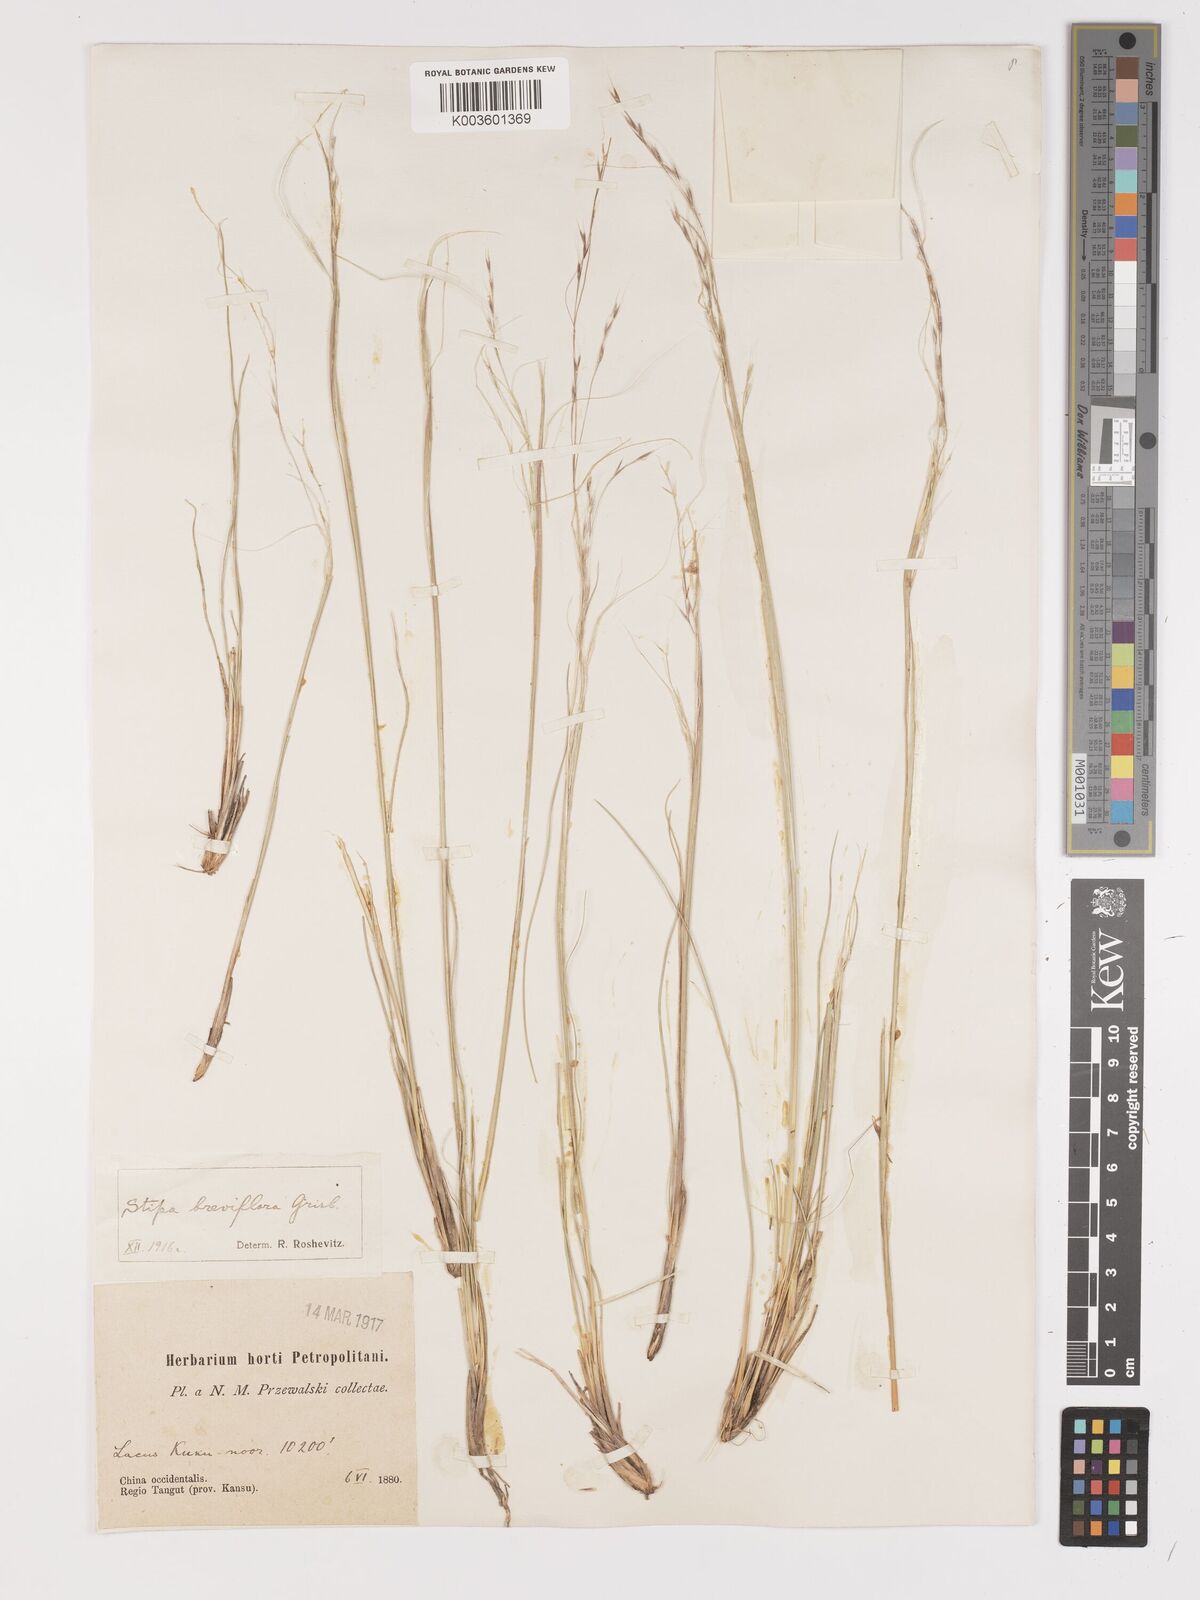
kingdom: Plantae
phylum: Tracheophyta
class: Liliopsida
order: Poales
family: Poaceae
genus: Stipa
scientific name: Stipa breviflora
